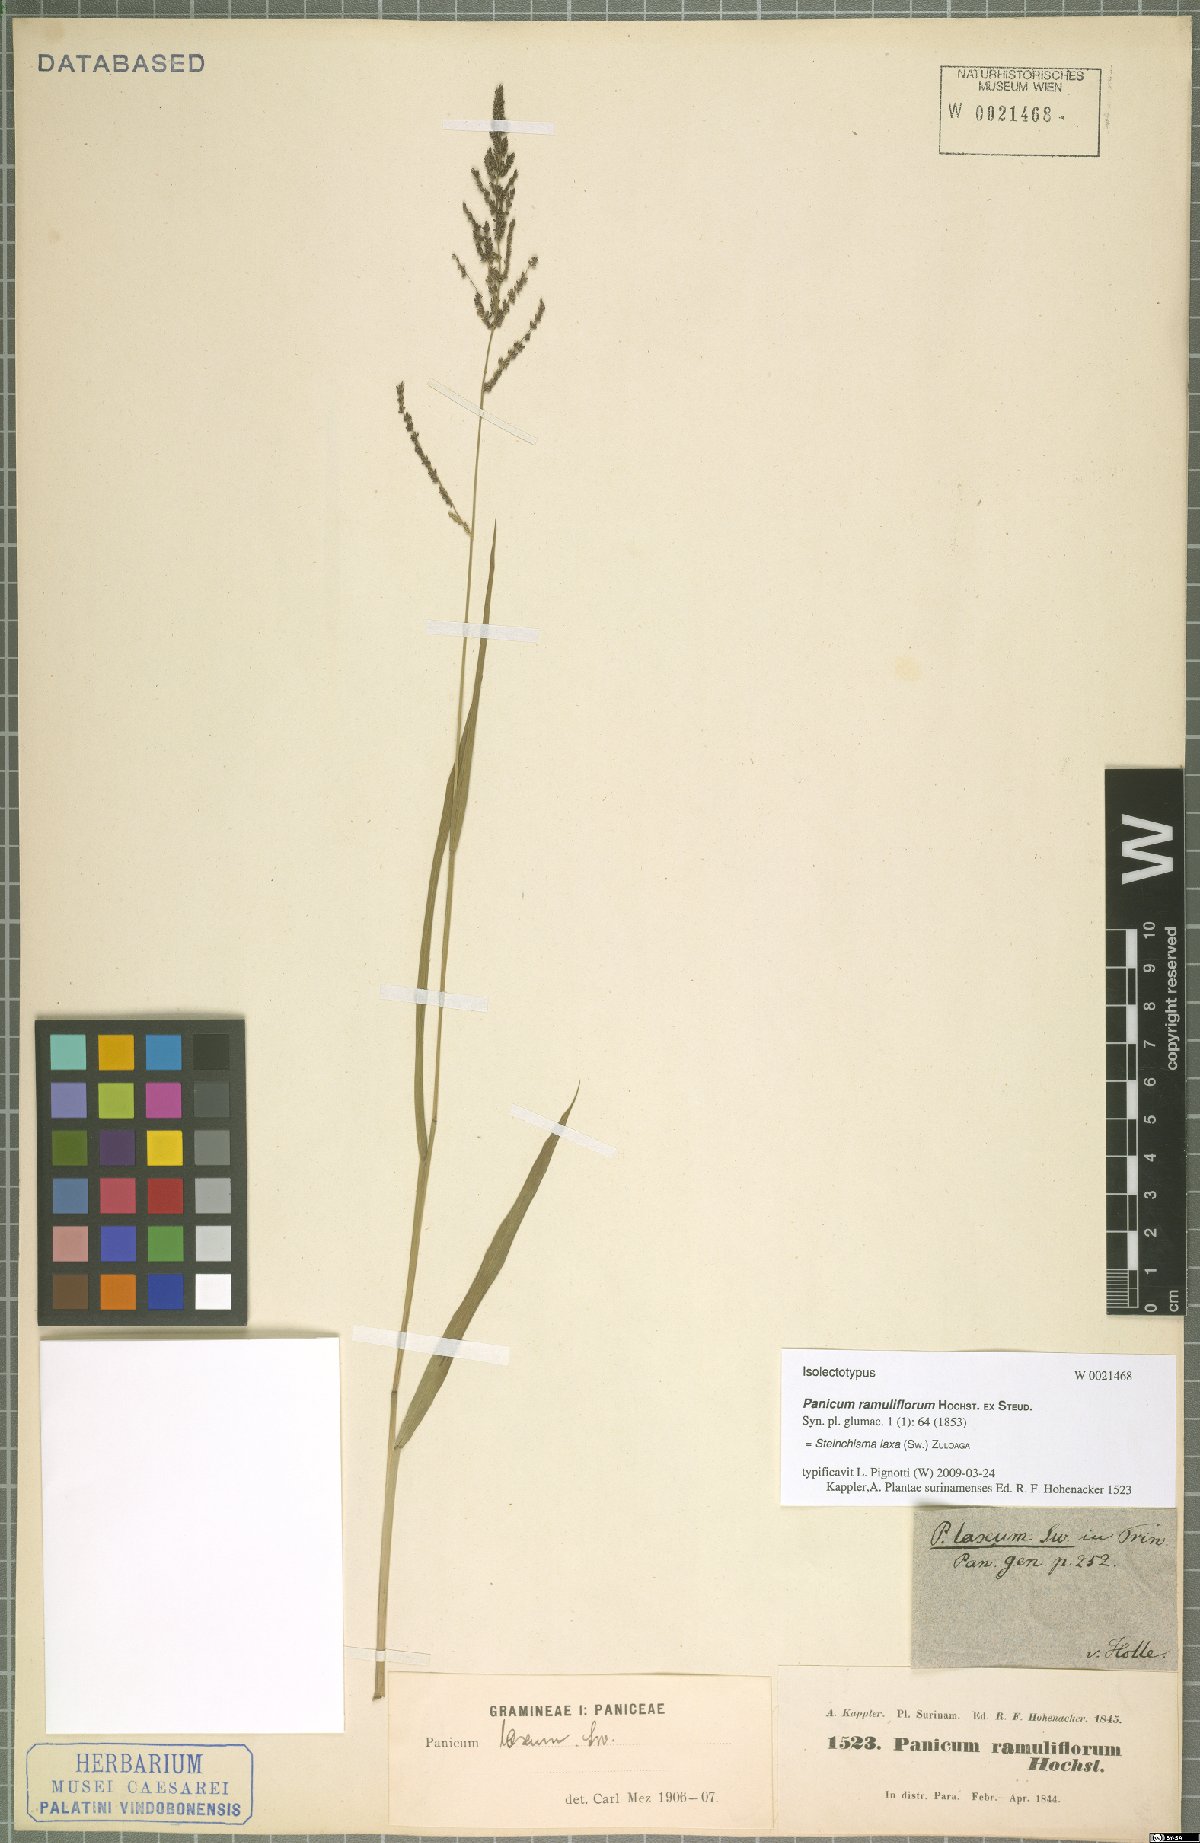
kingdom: Plantae
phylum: Tracheophyta
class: Liliopsida
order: Poales
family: Poaceae
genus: Steinchisma
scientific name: Steinchisma laxum
